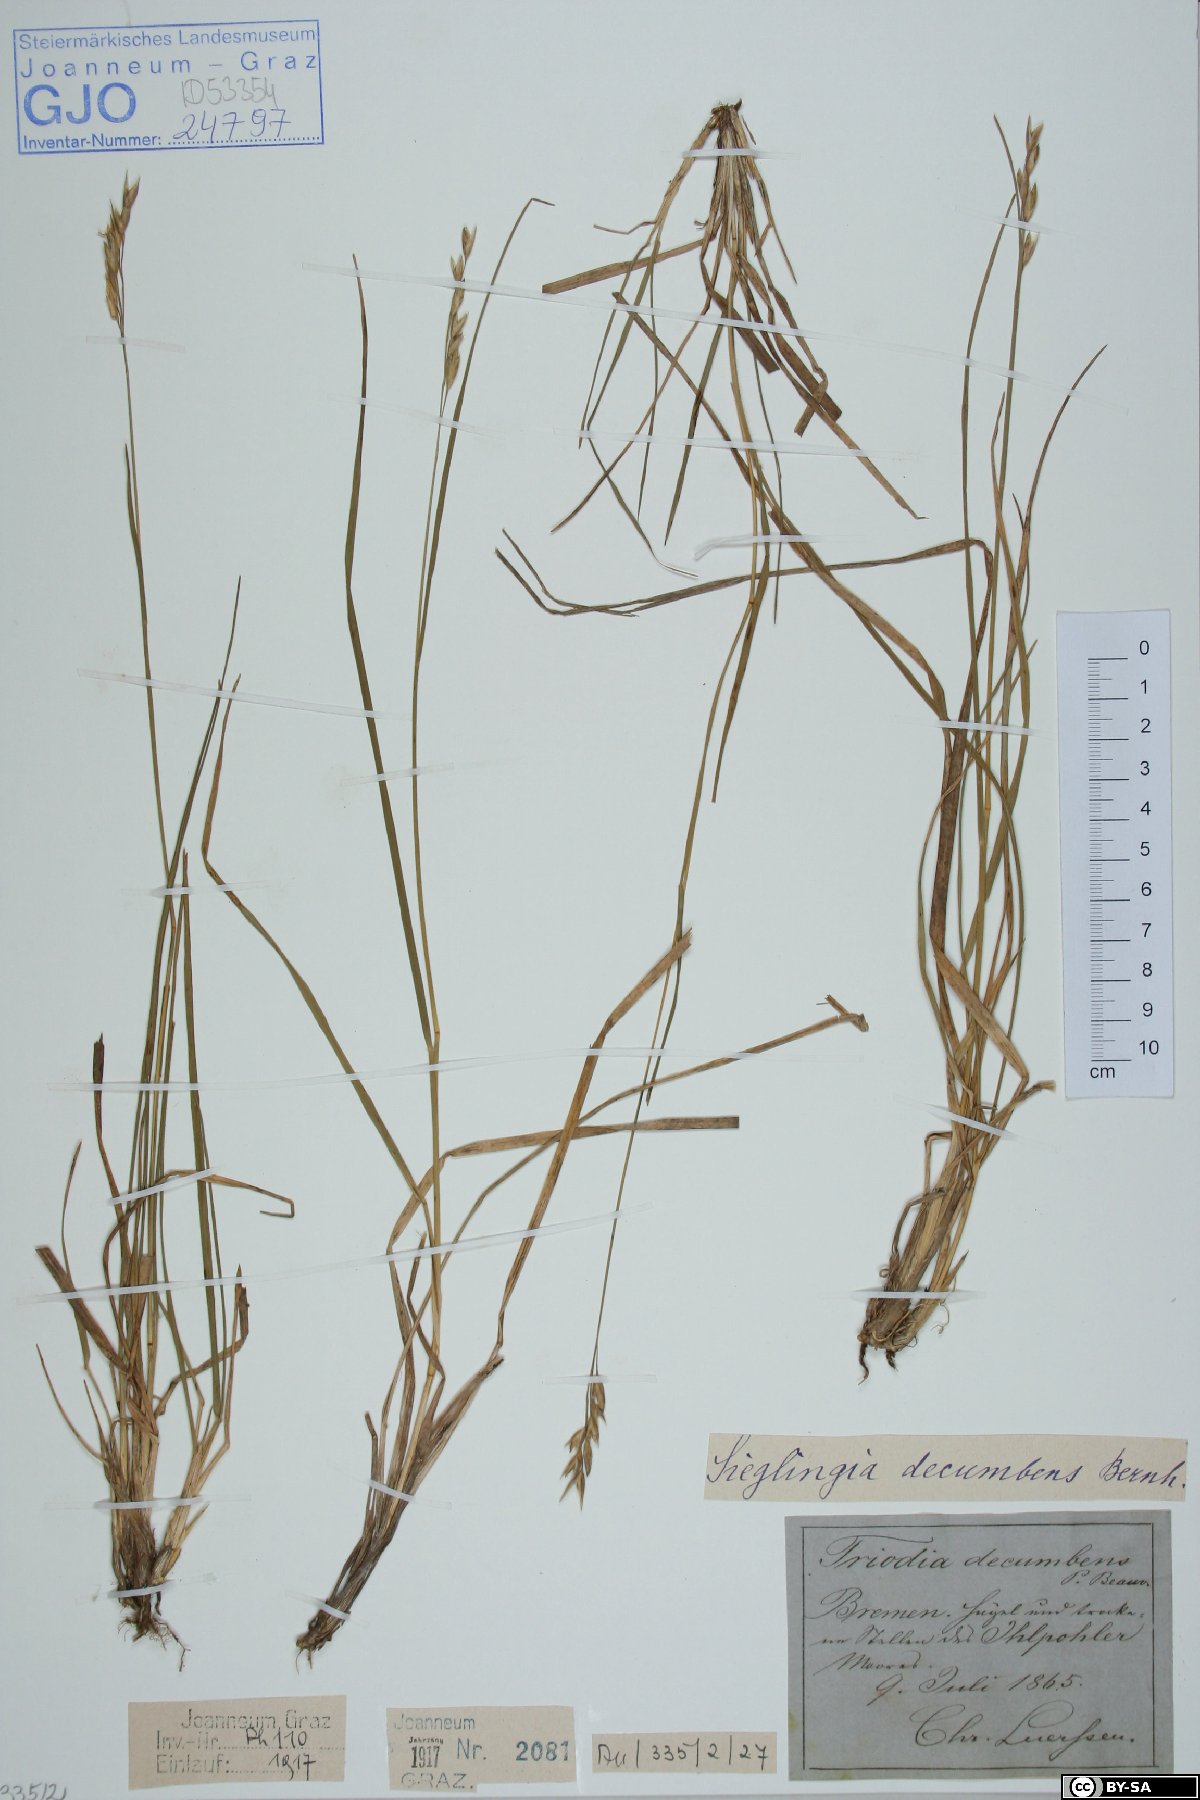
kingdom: Plantae
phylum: Tracheophyta
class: Liliopsida
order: Poales
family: Poaceae
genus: Danthonia
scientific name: Danthonia decumbens
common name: Common heathgrass
